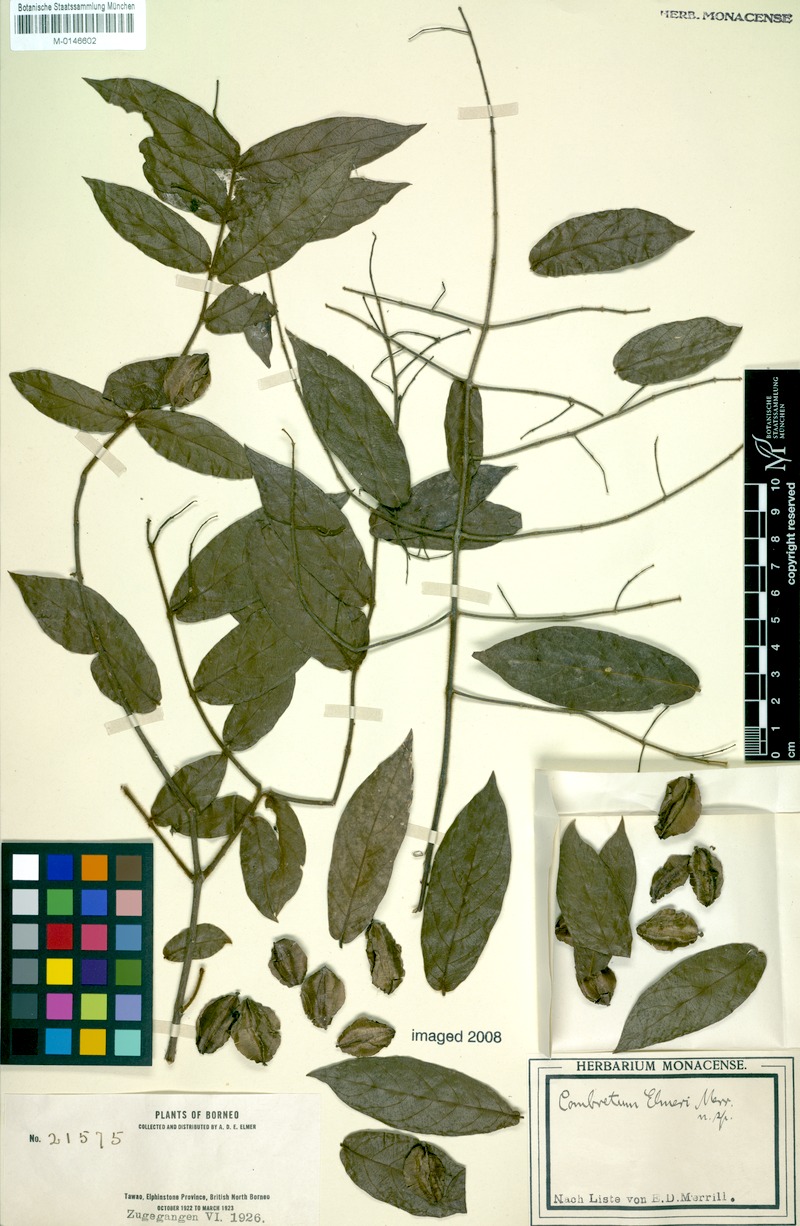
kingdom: Plantae
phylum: Tracheophyta
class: Magnoliopsida
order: Myrtales
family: Combretaceae
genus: Combretum
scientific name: Combretum nigrescens
